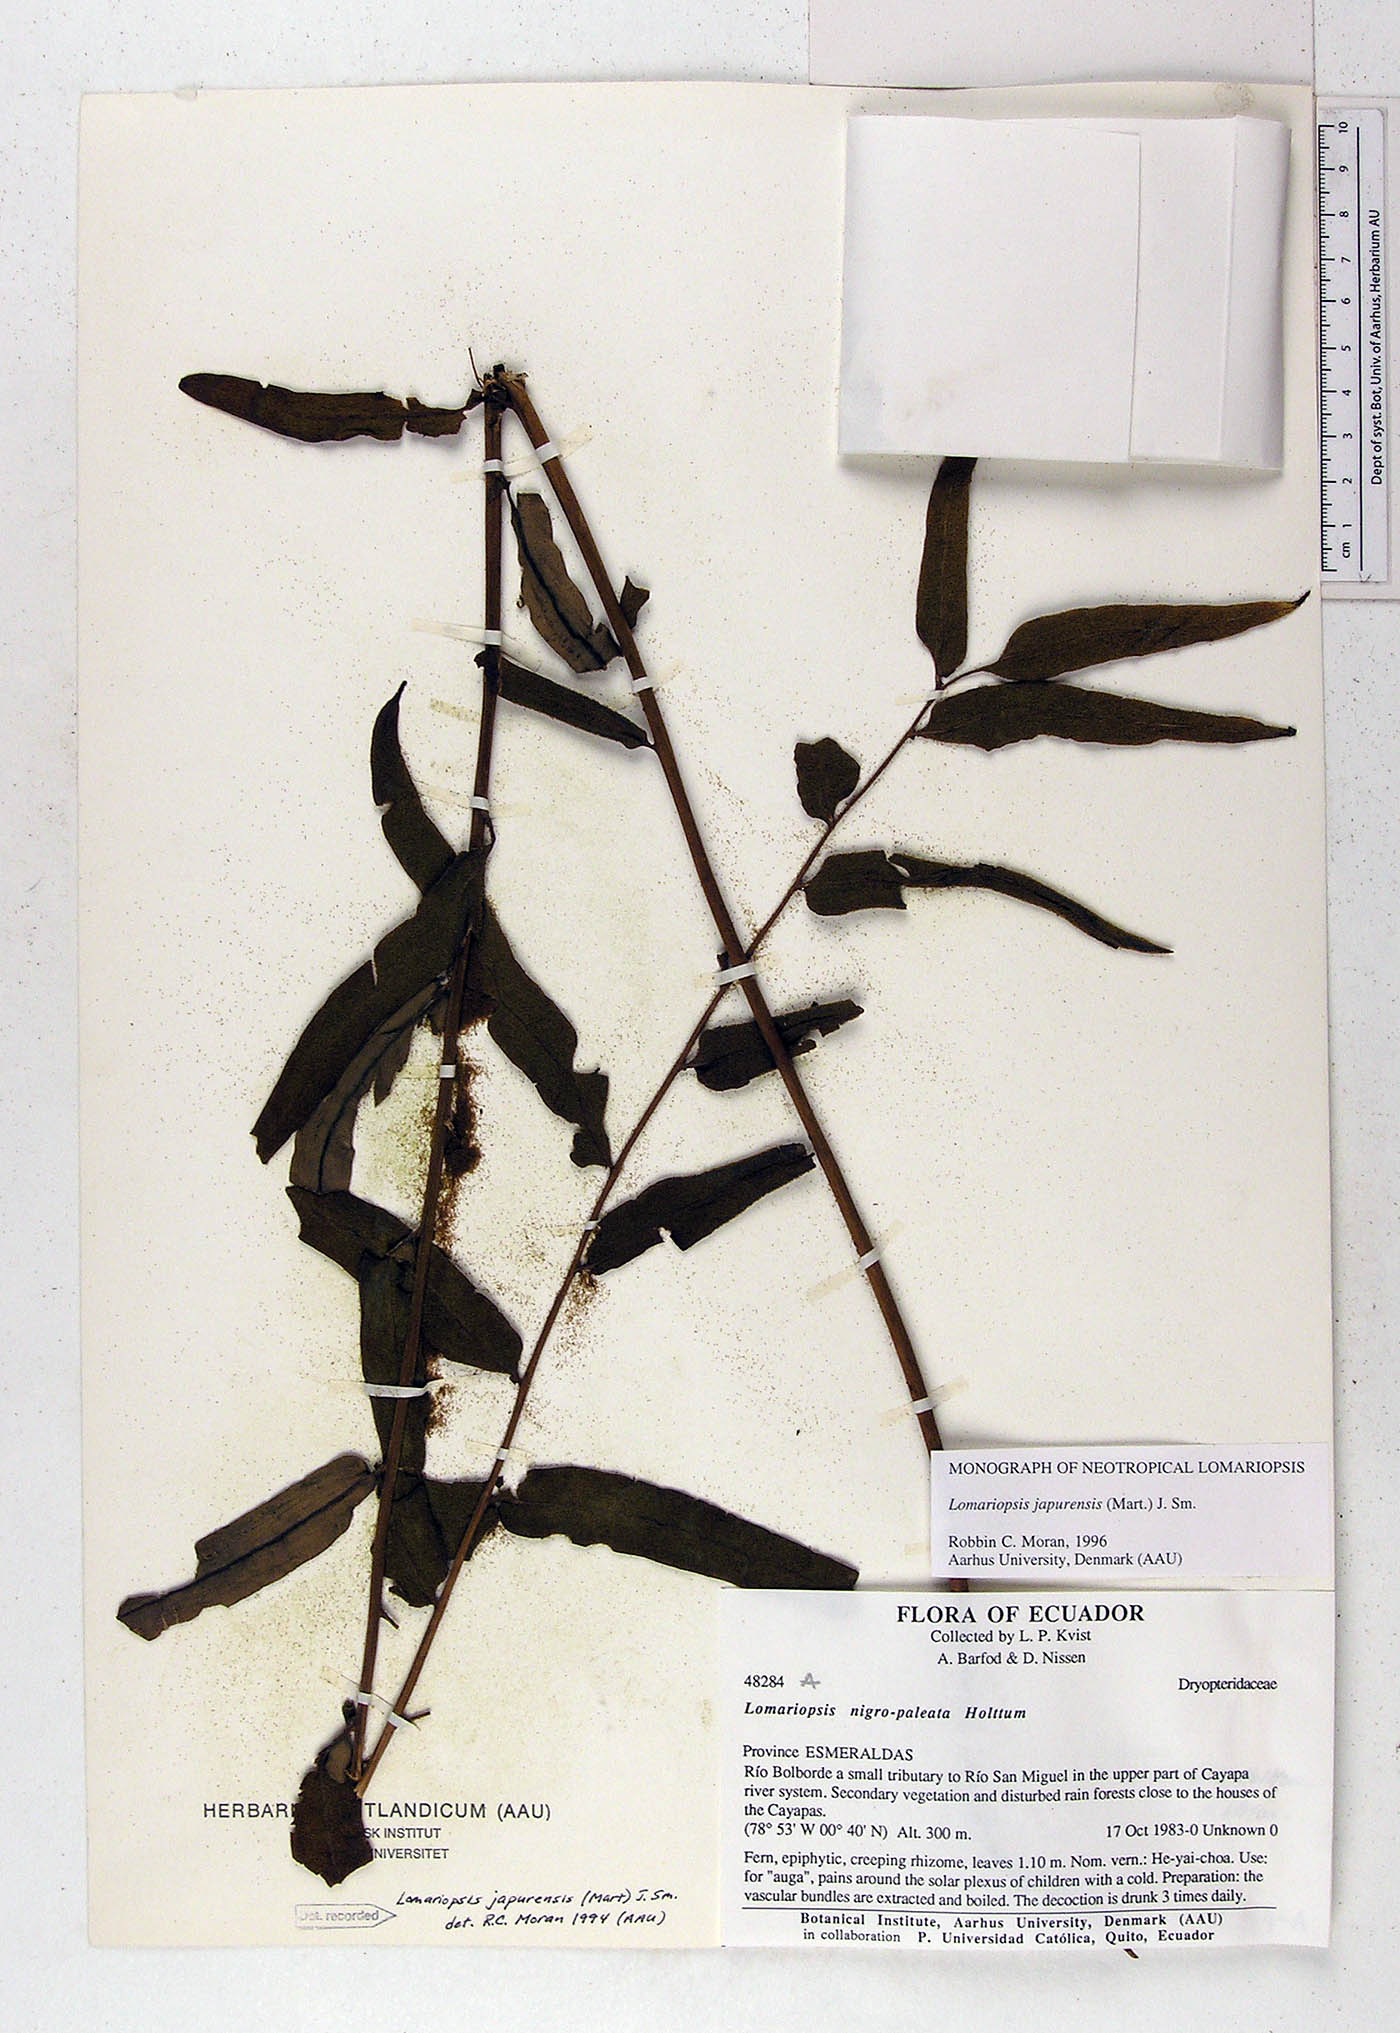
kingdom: Plantae
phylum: Tracheophyta
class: Polypodiopsida
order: Polypodiales
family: Lomariopsidaceae
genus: Lomariopsis
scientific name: Lomariopsis nigropaleata
